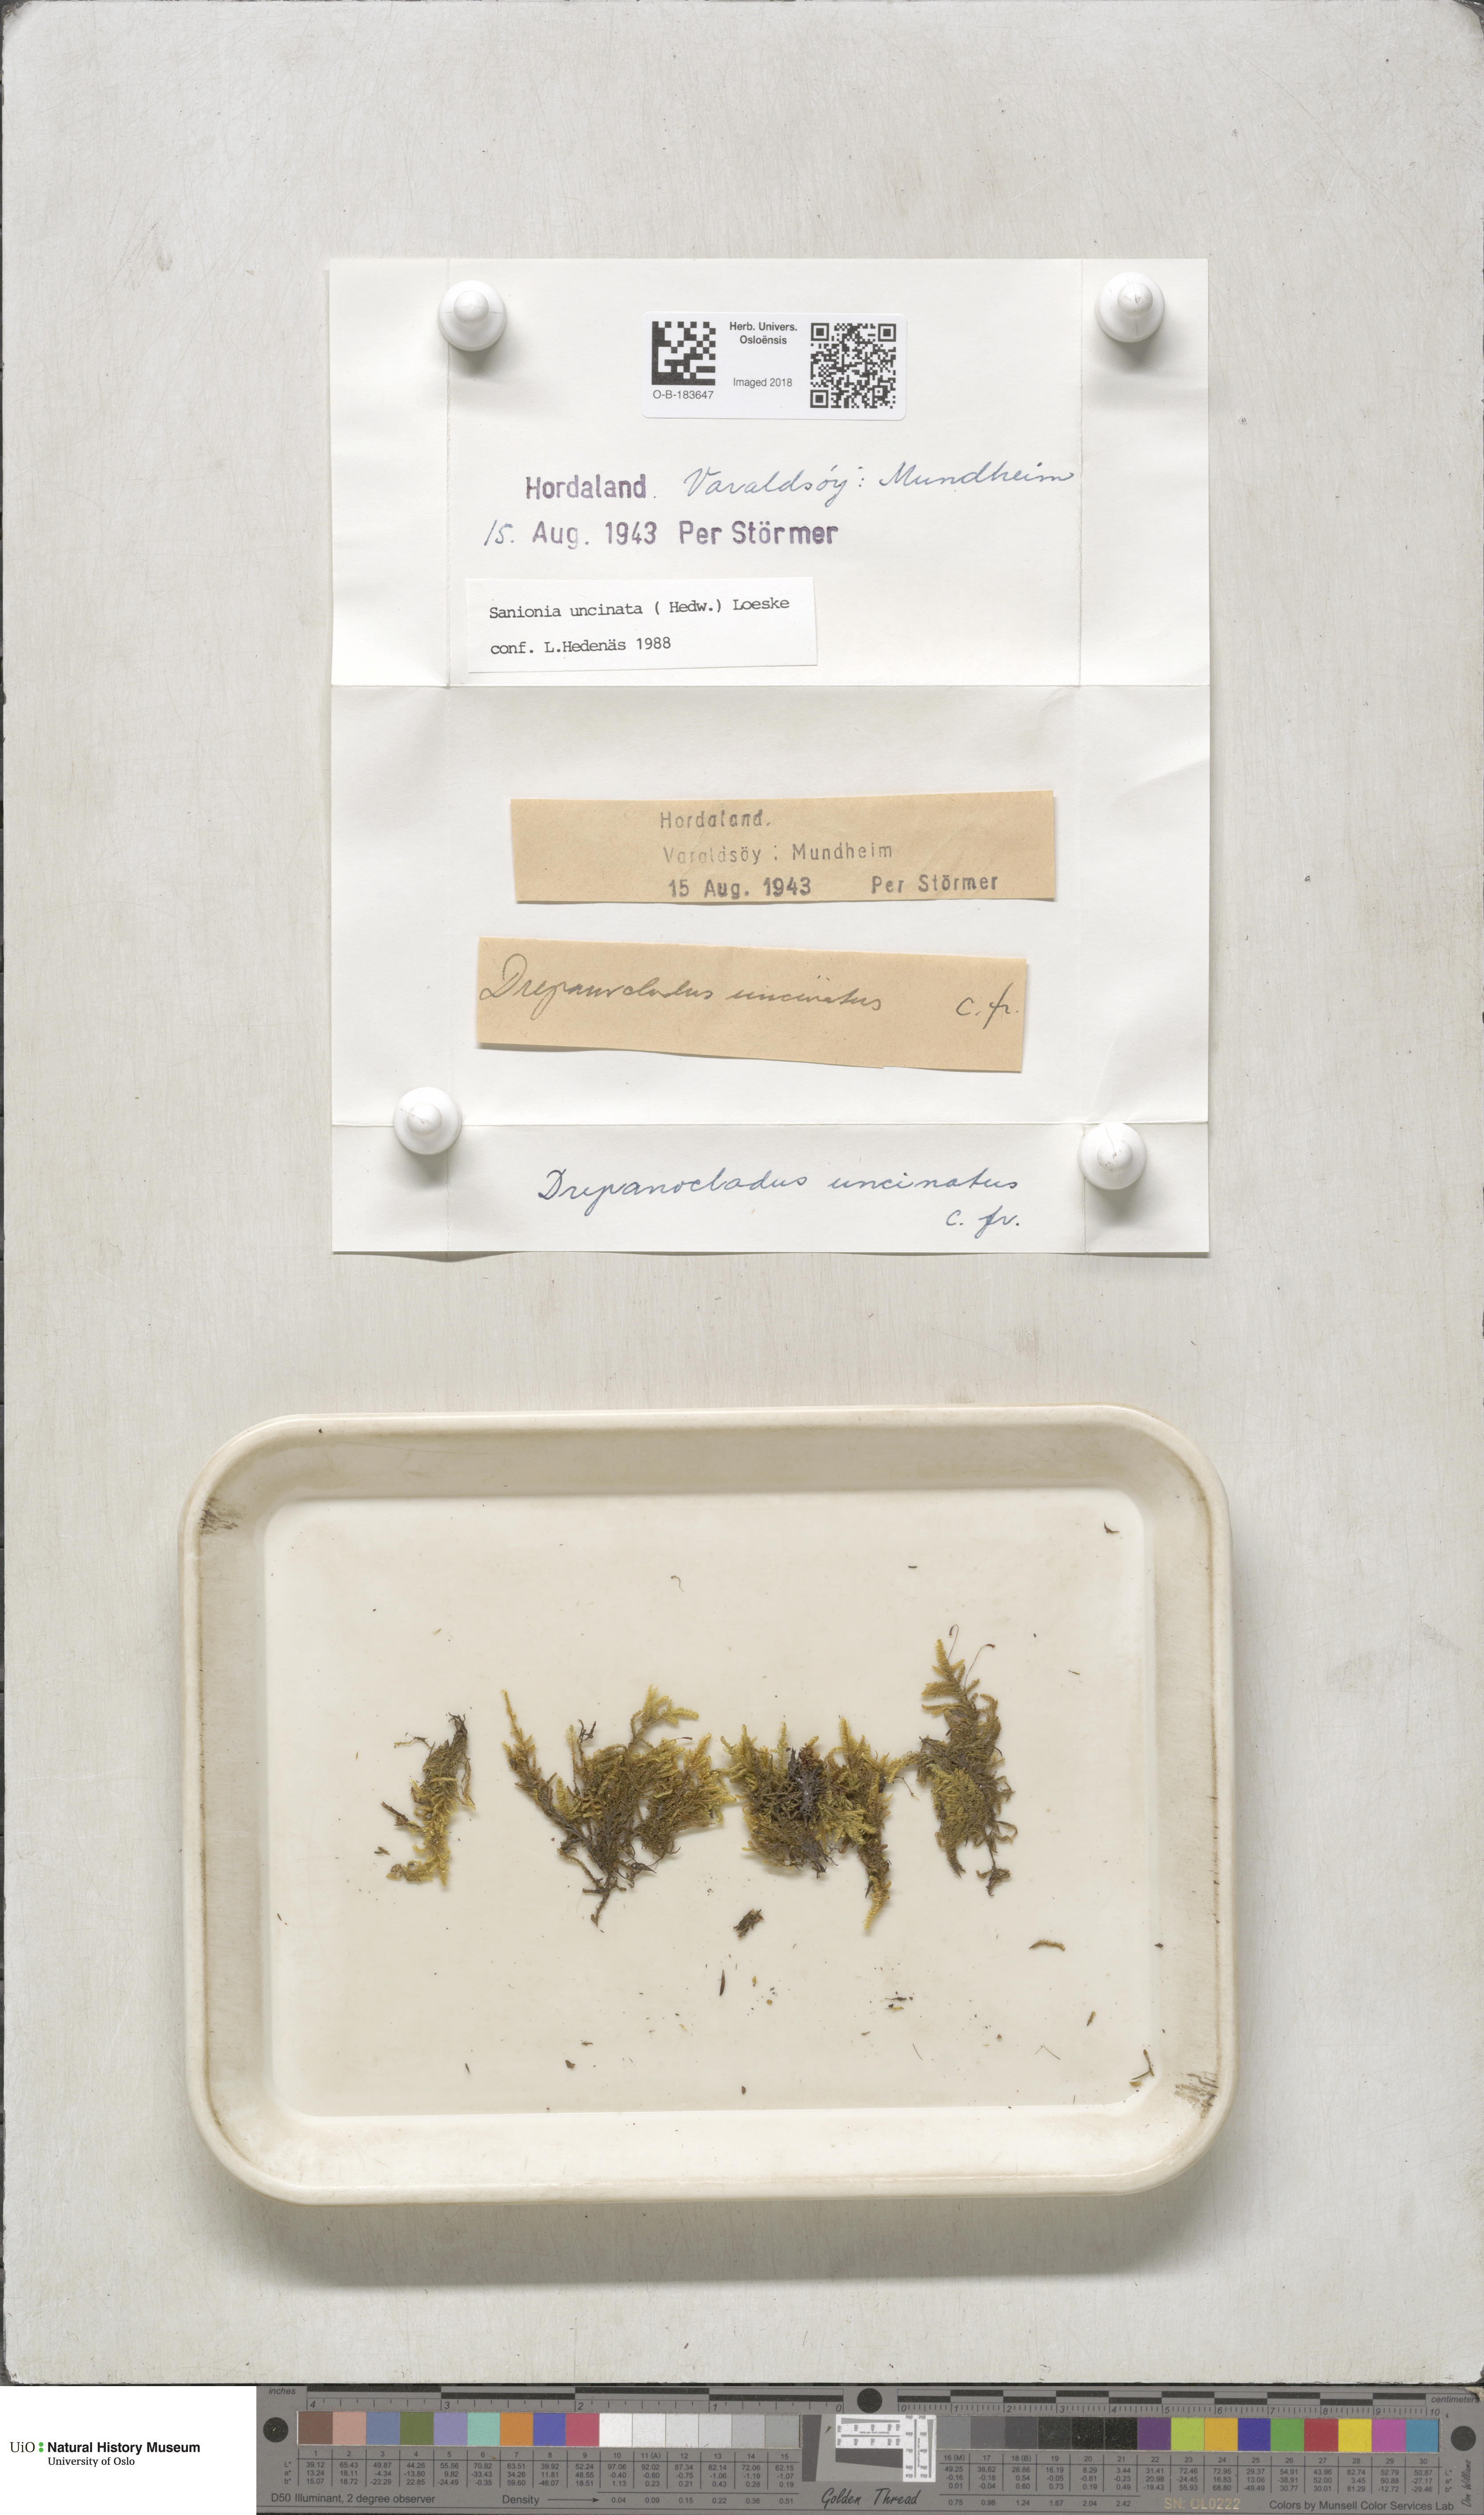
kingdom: Plantae
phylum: Bryophyta
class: Bryopsida
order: Hypnales
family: Scorpidiaceae
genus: Sanionia
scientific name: Sanionia uncinata
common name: Sickle moss
